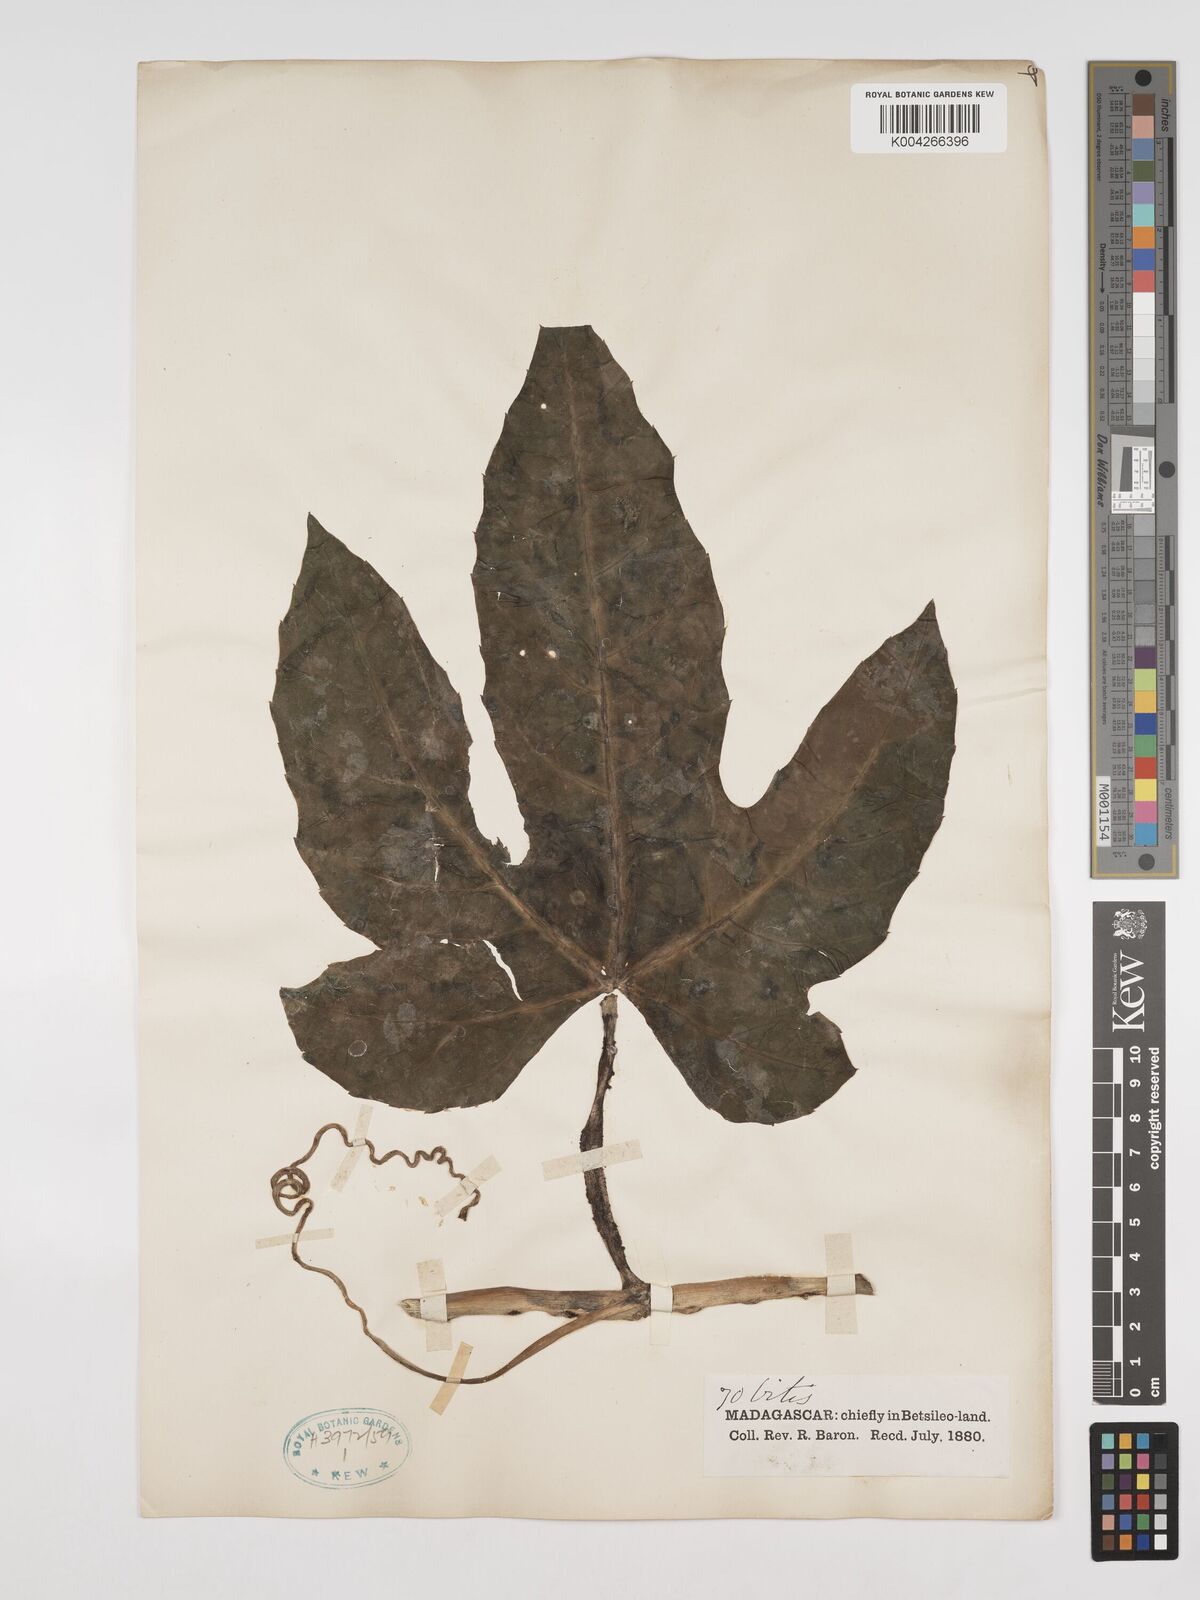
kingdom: Plantae
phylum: Tracheophyta
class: Magnoliopsida
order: Vitales
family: Vitaceae
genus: Cissus
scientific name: Cissus
